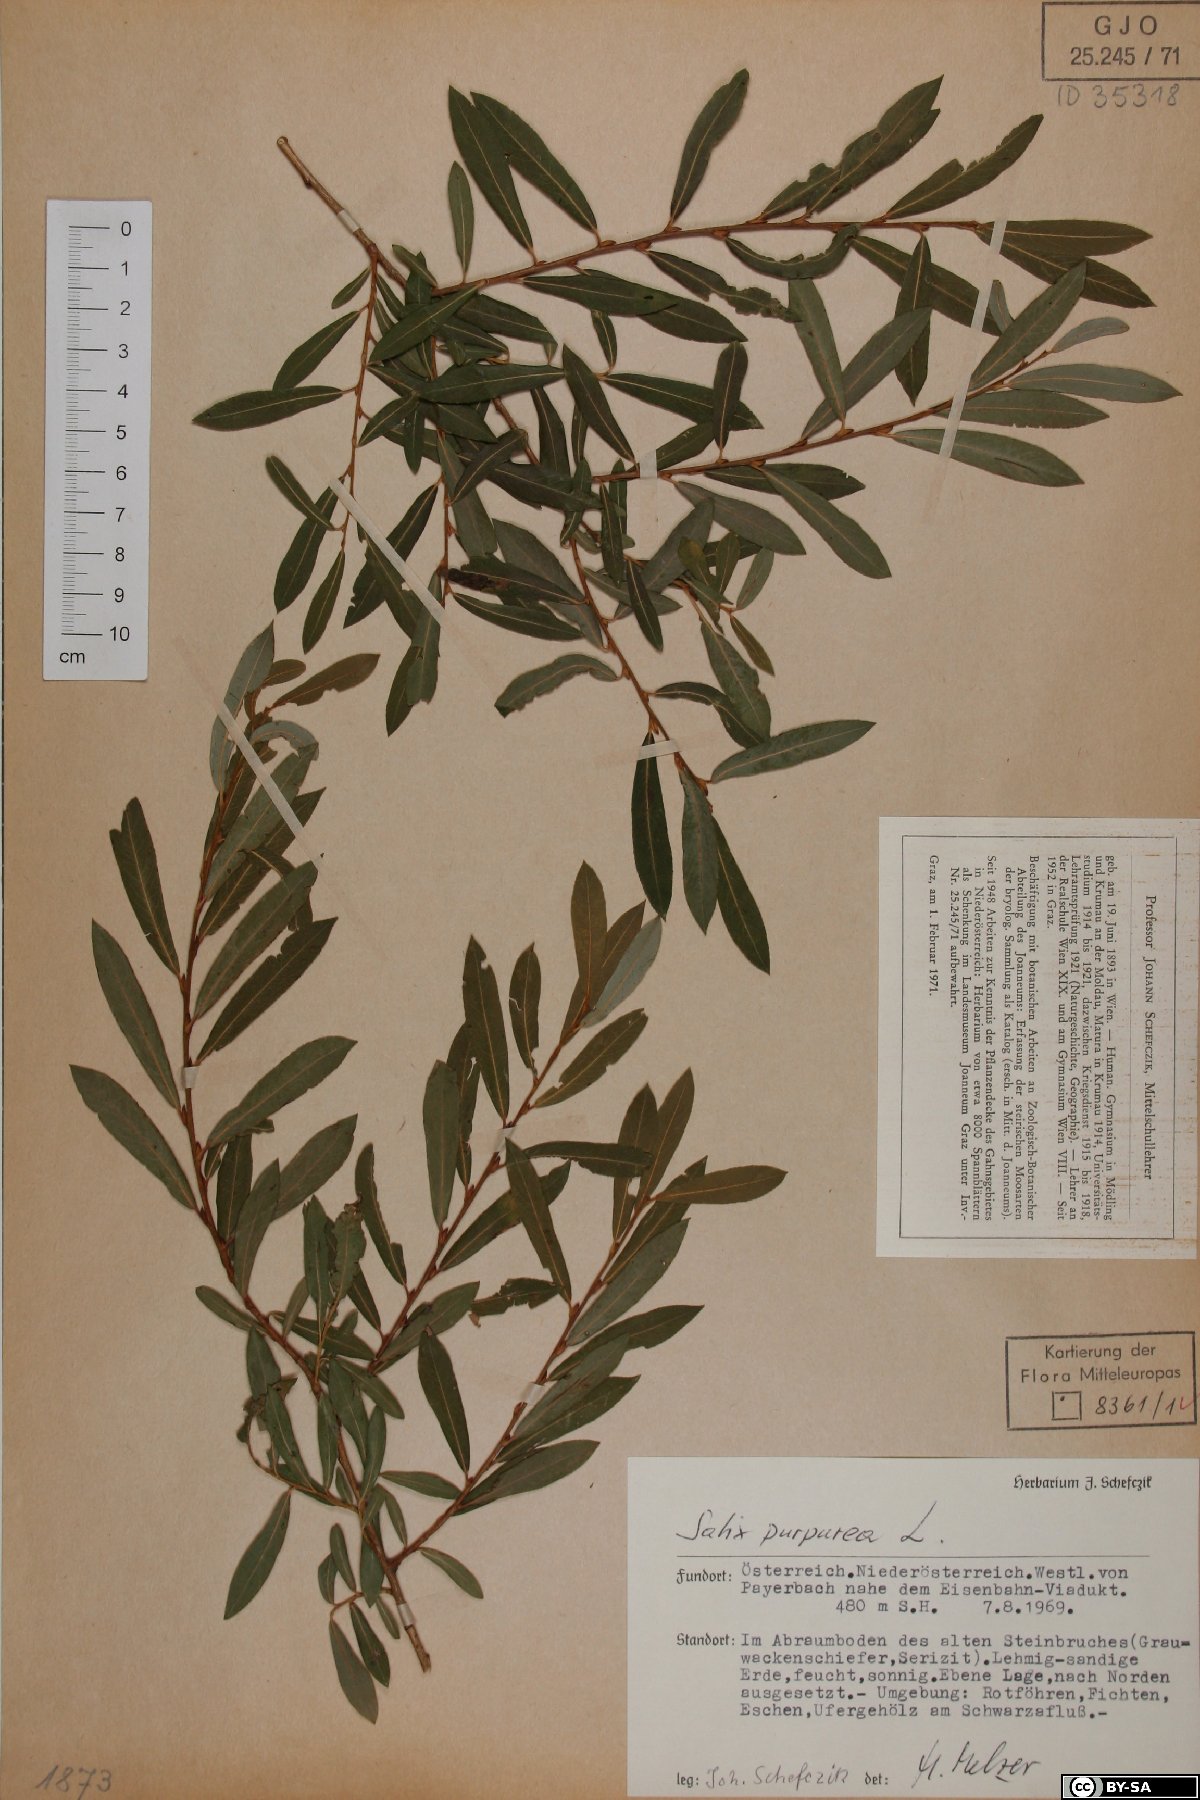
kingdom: Plantae
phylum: Tracheophyta
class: Magnoliopsida
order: Malpighiales
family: Salicaceae
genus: Salix
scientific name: Salix purpurea
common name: Purple willow
